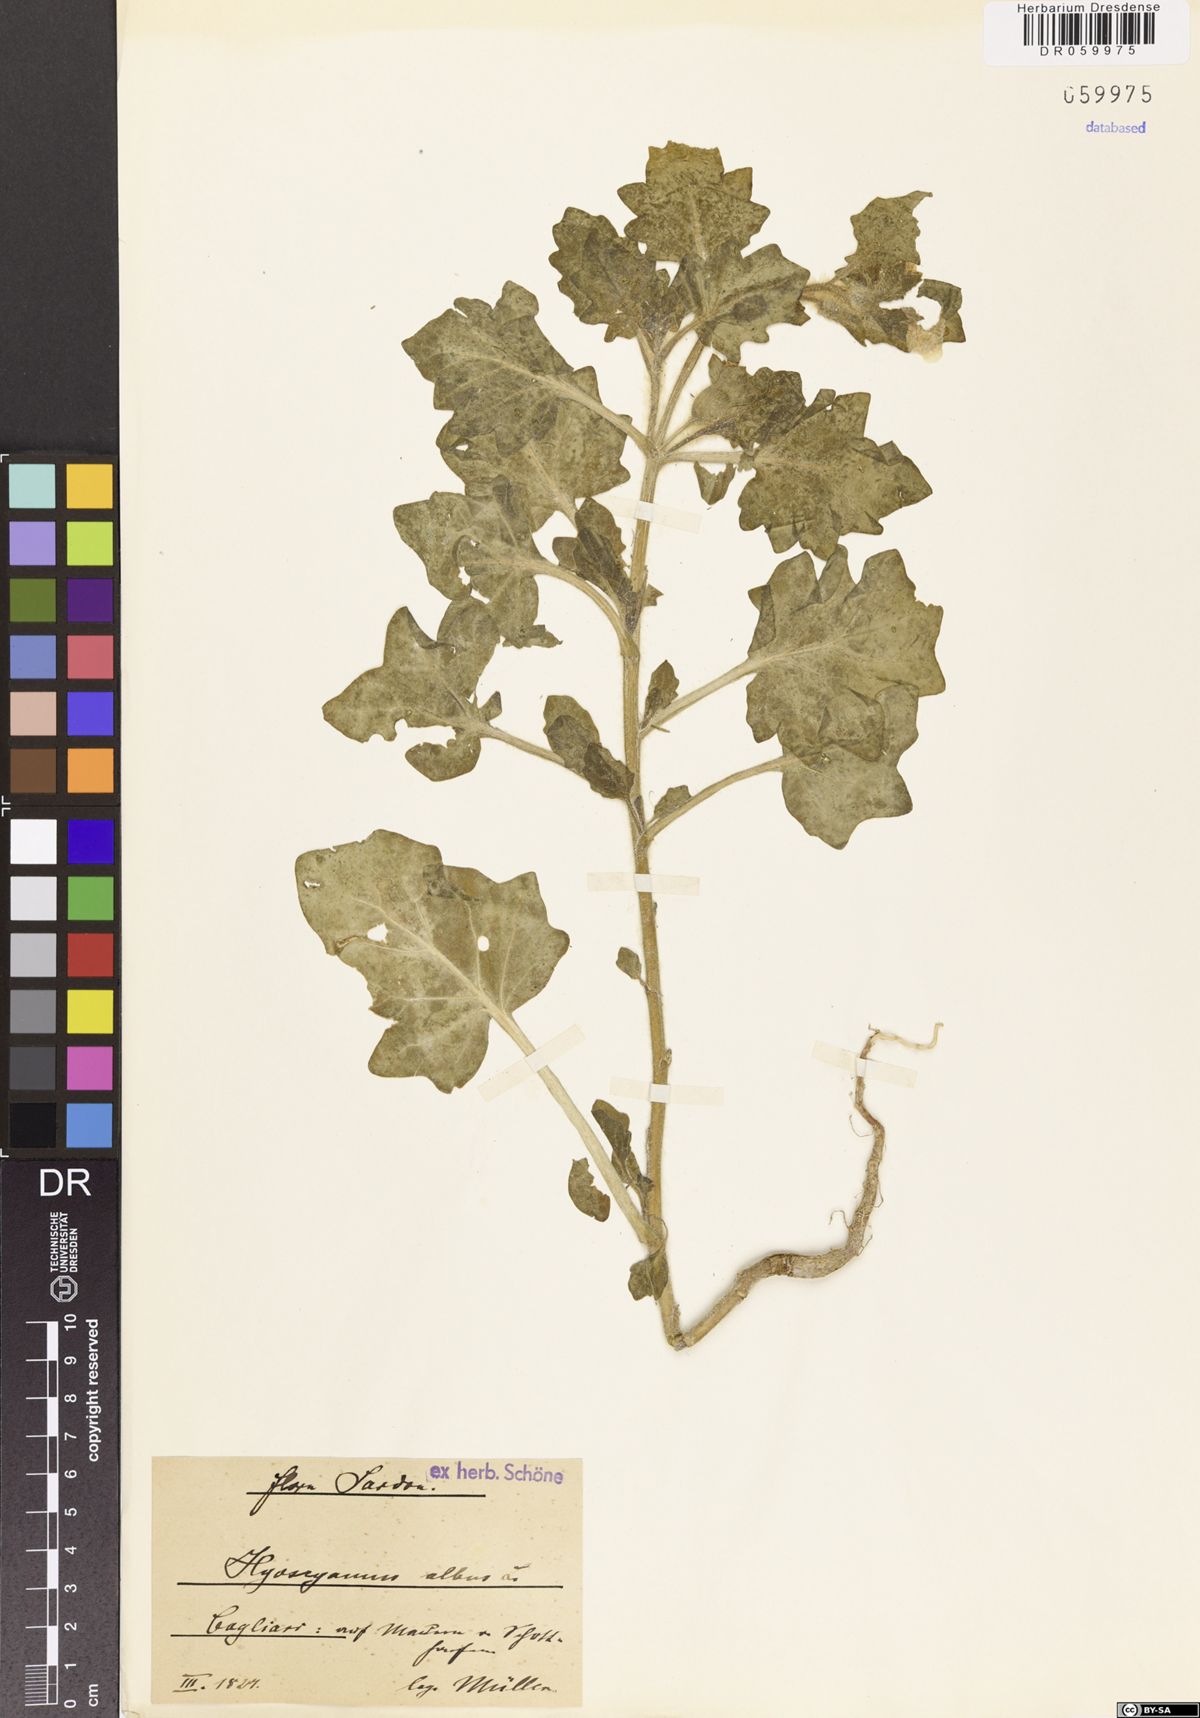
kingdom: Plantae
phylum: Tracheophyta
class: Magnoliopsida
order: Solanales
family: Solanaceae
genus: Hyoscyamus
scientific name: Hyoscyamus albus
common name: White henbane
